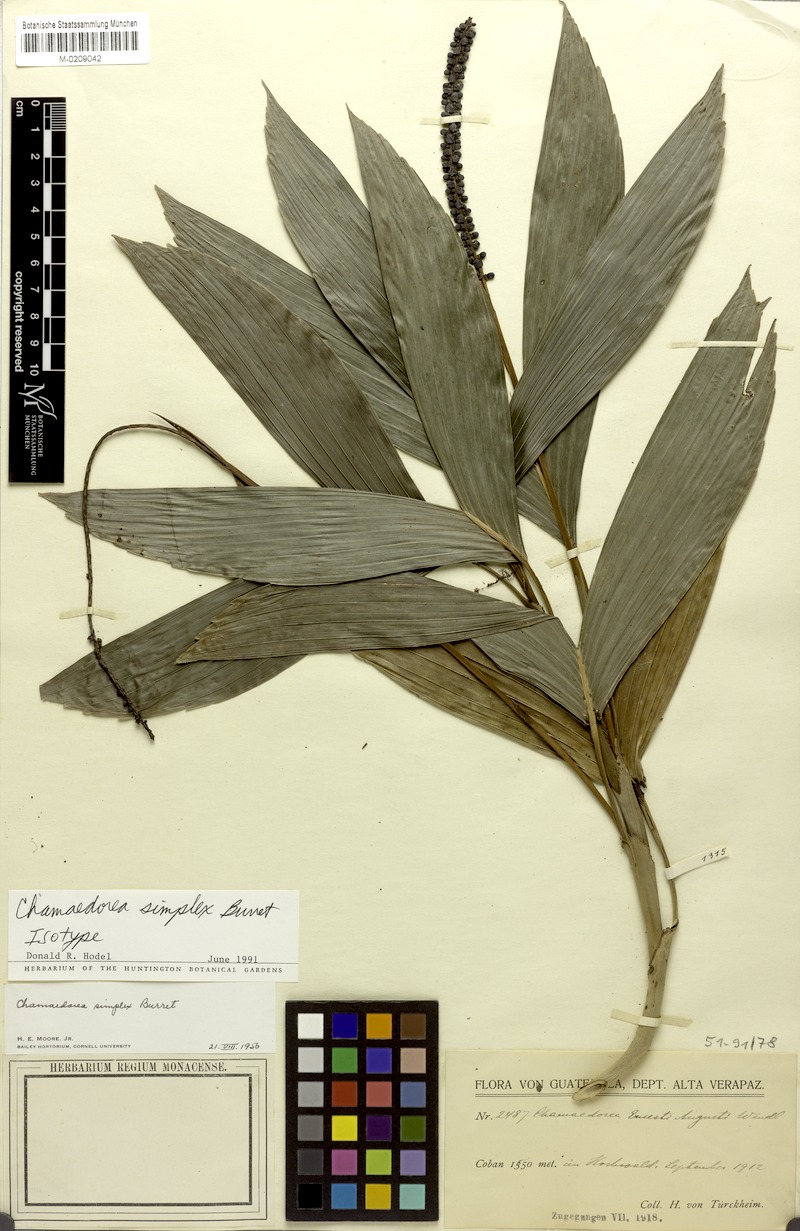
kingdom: Plantae
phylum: Tracheophyta
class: Liliopsida
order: Arecales
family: Arecaceae
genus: Chamaedorea
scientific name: Chamaedorea simplex
